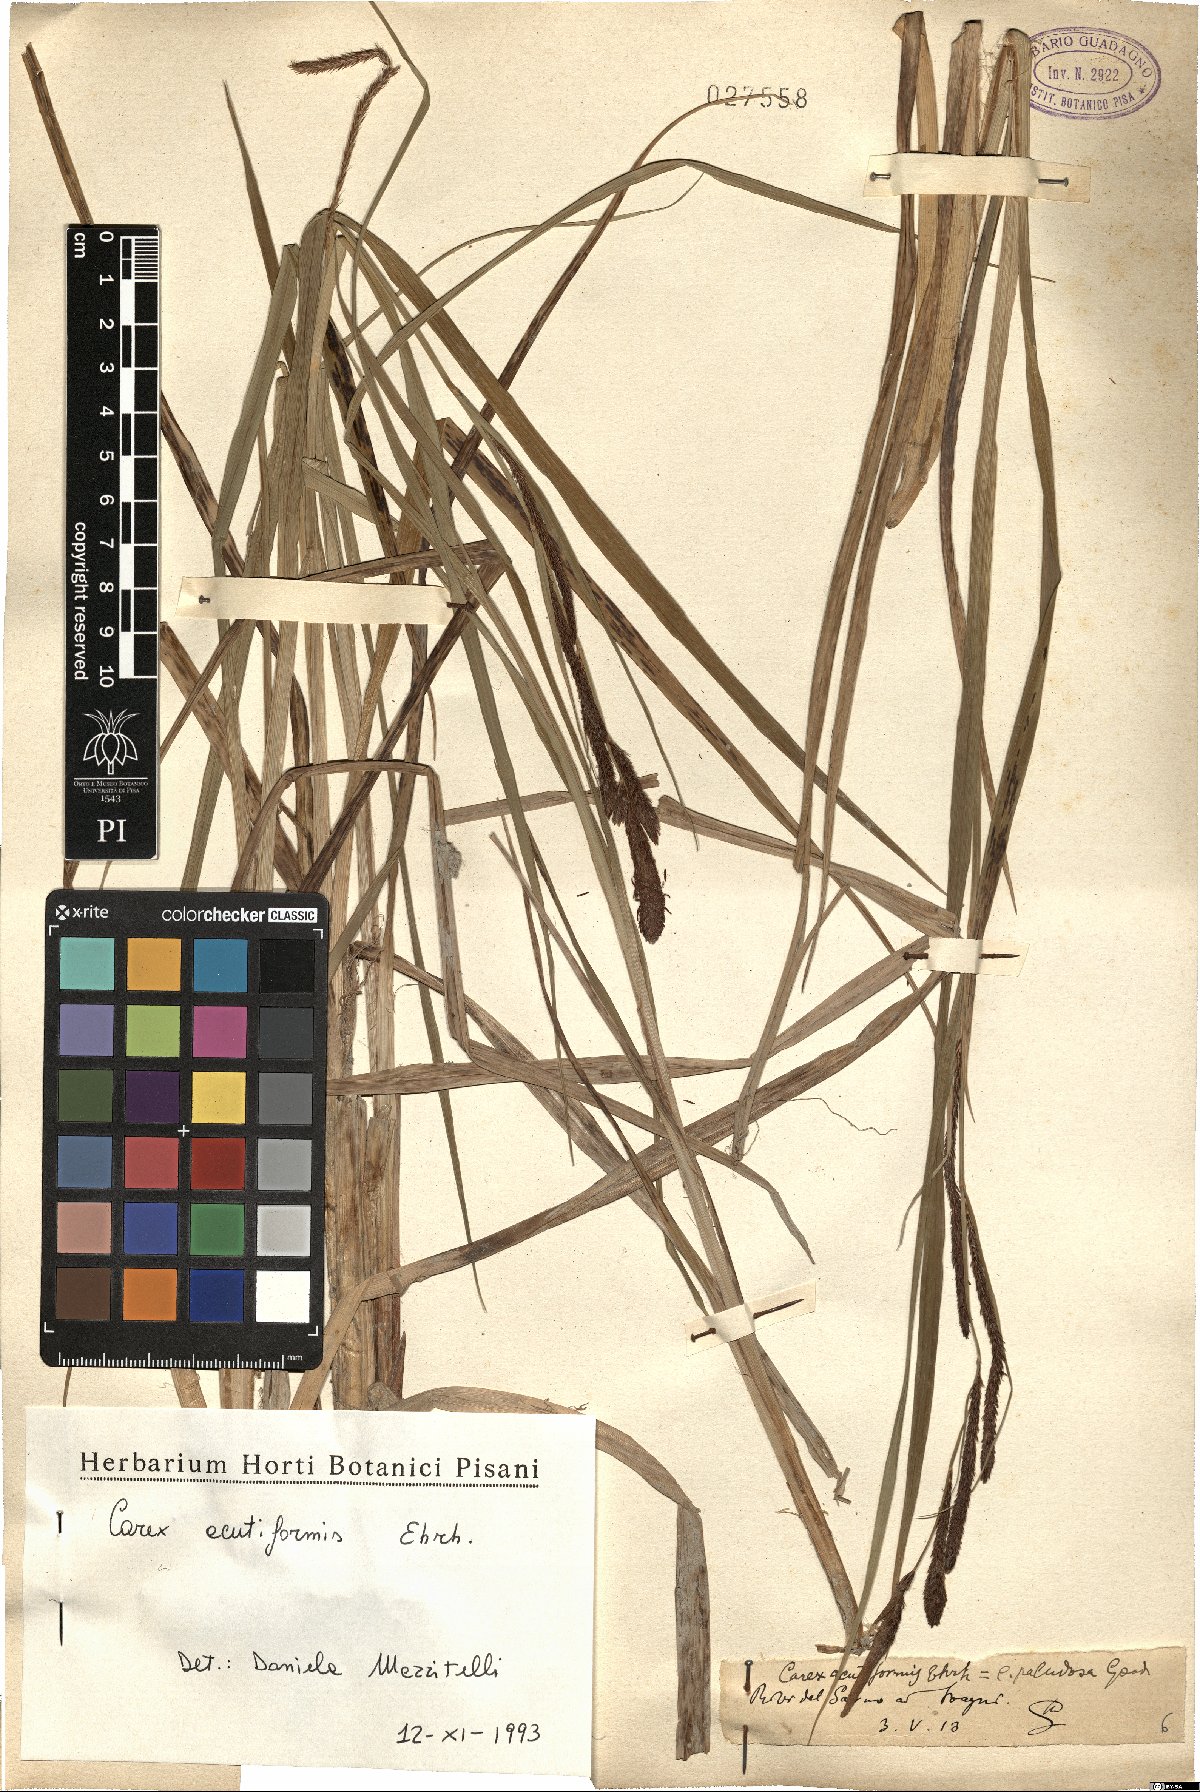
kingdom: Plantae
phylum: Tracheophyta
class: Liliopsida
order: Poales
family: Cyperaceae
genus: Carex
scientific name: Carex acutiformis
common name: Lesser pond-sedge
